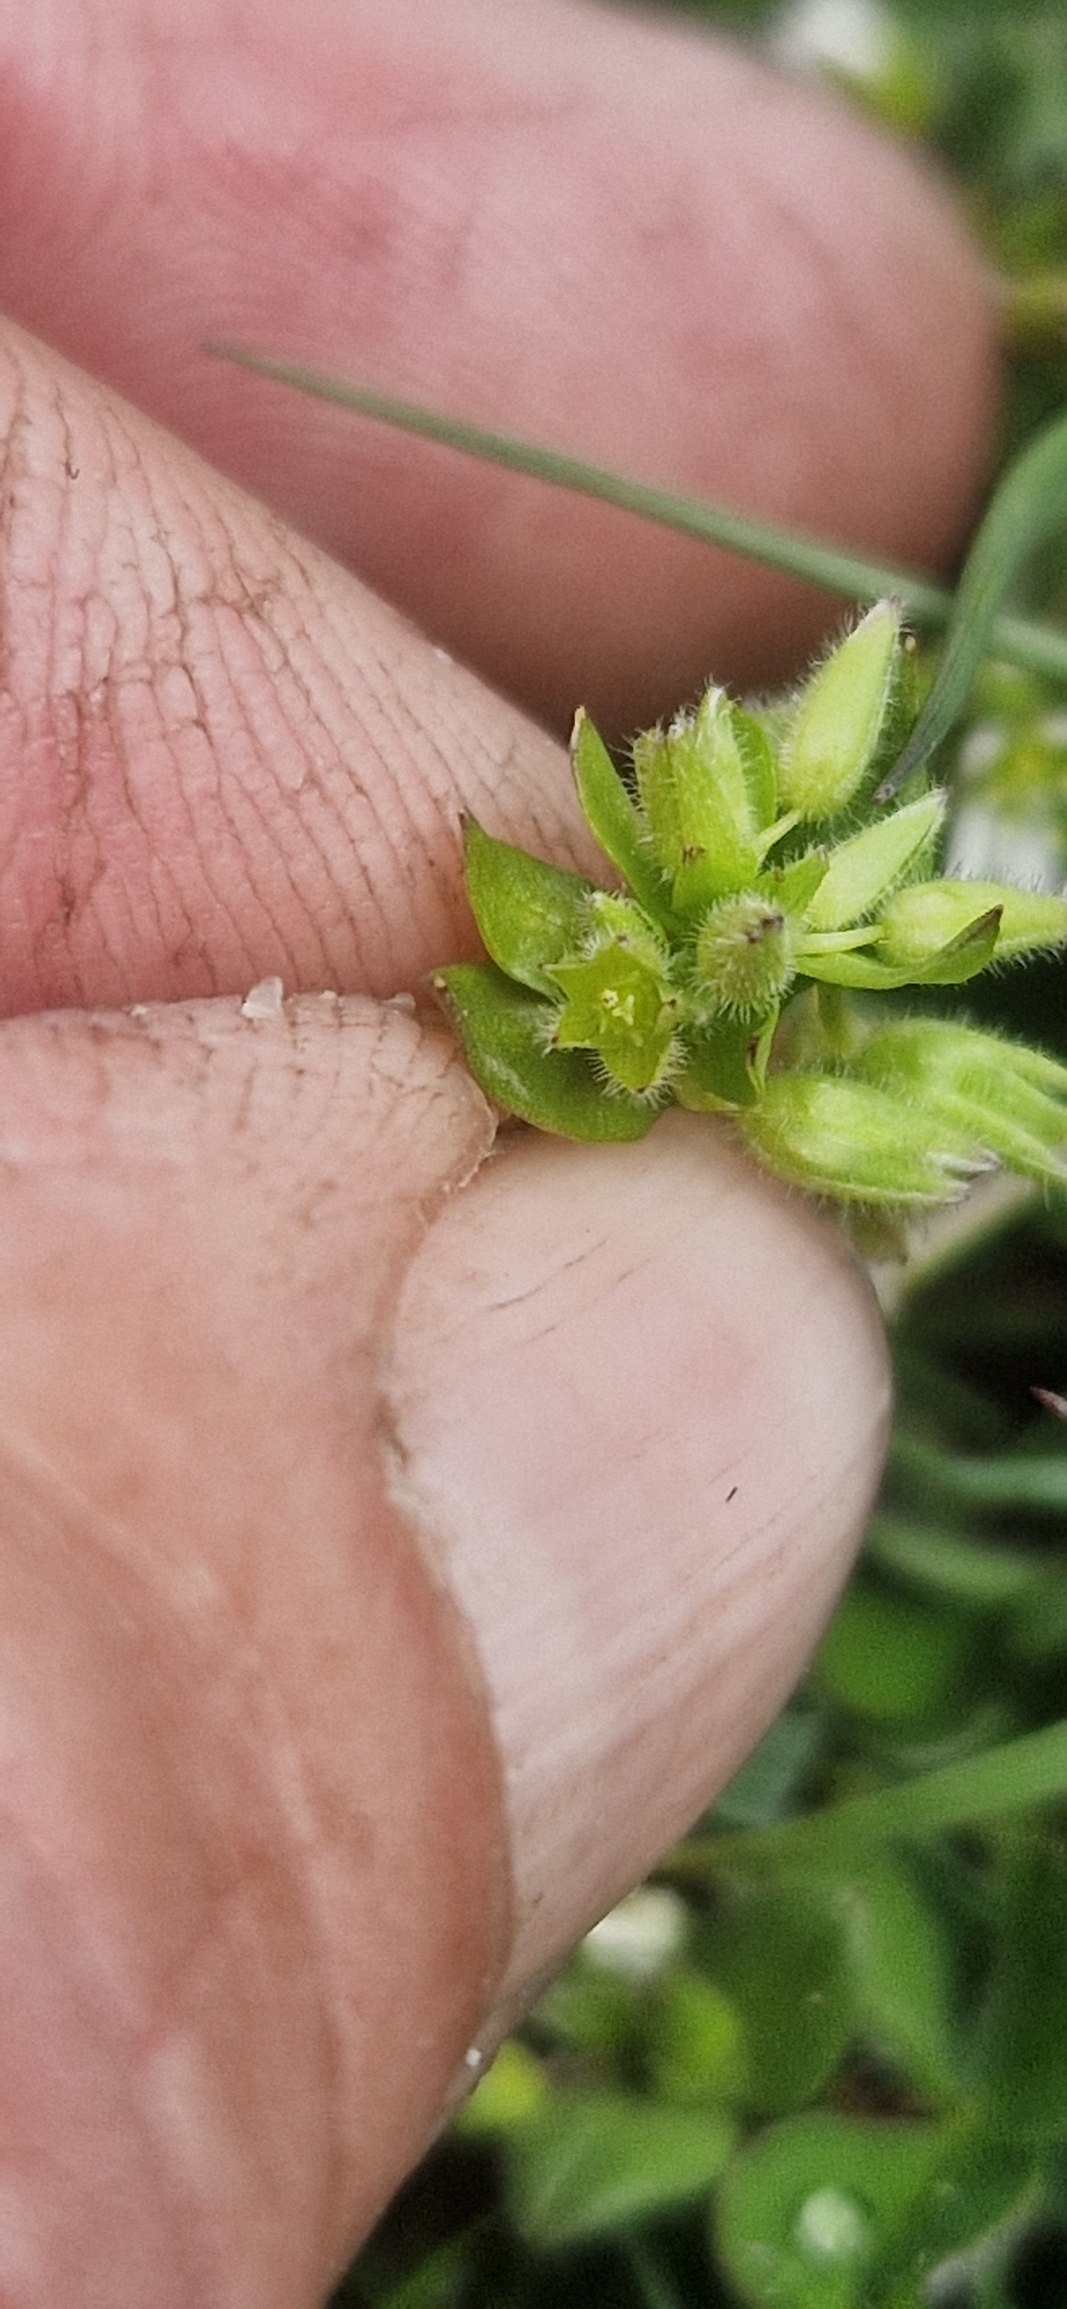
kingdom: Plantae
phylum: Tracheophyta
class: Magnoliopsida
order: Caryophyllales
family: Caryophyllaceae
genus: Stellaria
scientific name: Stellaria apetala
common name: Bleg fuglegræs
